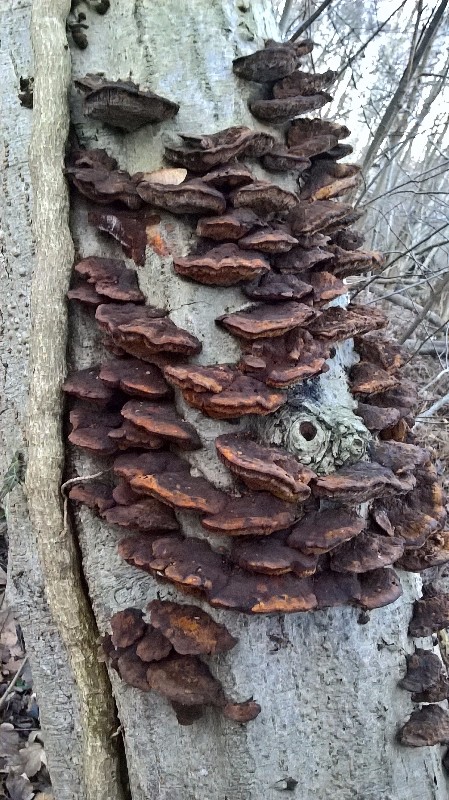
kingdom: Fungi
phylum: Basidiomycota
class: Agaricomycetes
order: Hymenochaetales
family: Hymenochaetaceae
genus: Xanthoporia
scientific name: Xanthoporia radiata
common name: elle-spejlporesvamp
